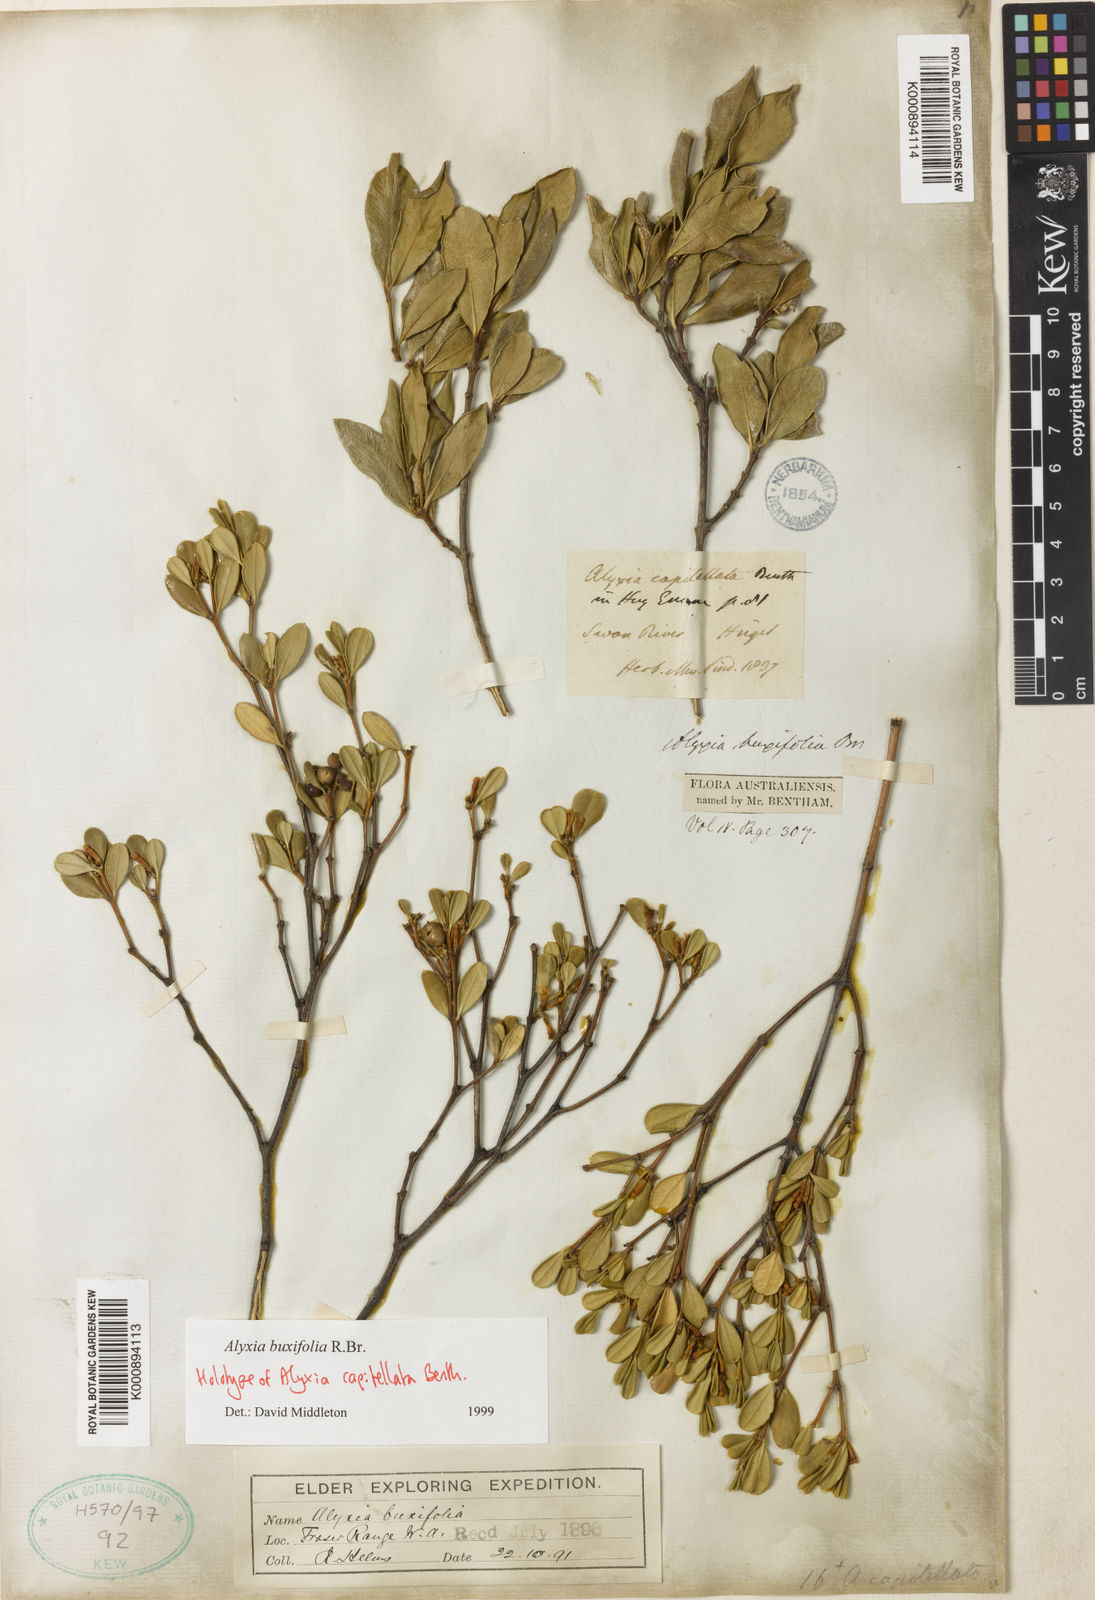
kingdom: Plantae
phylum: Tracheophyta
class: Magnoliopsida
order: Gentianales
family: Apocynaceae
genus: Alyxia
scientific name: Alyxia buxifolia
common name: Dysentery-bush
